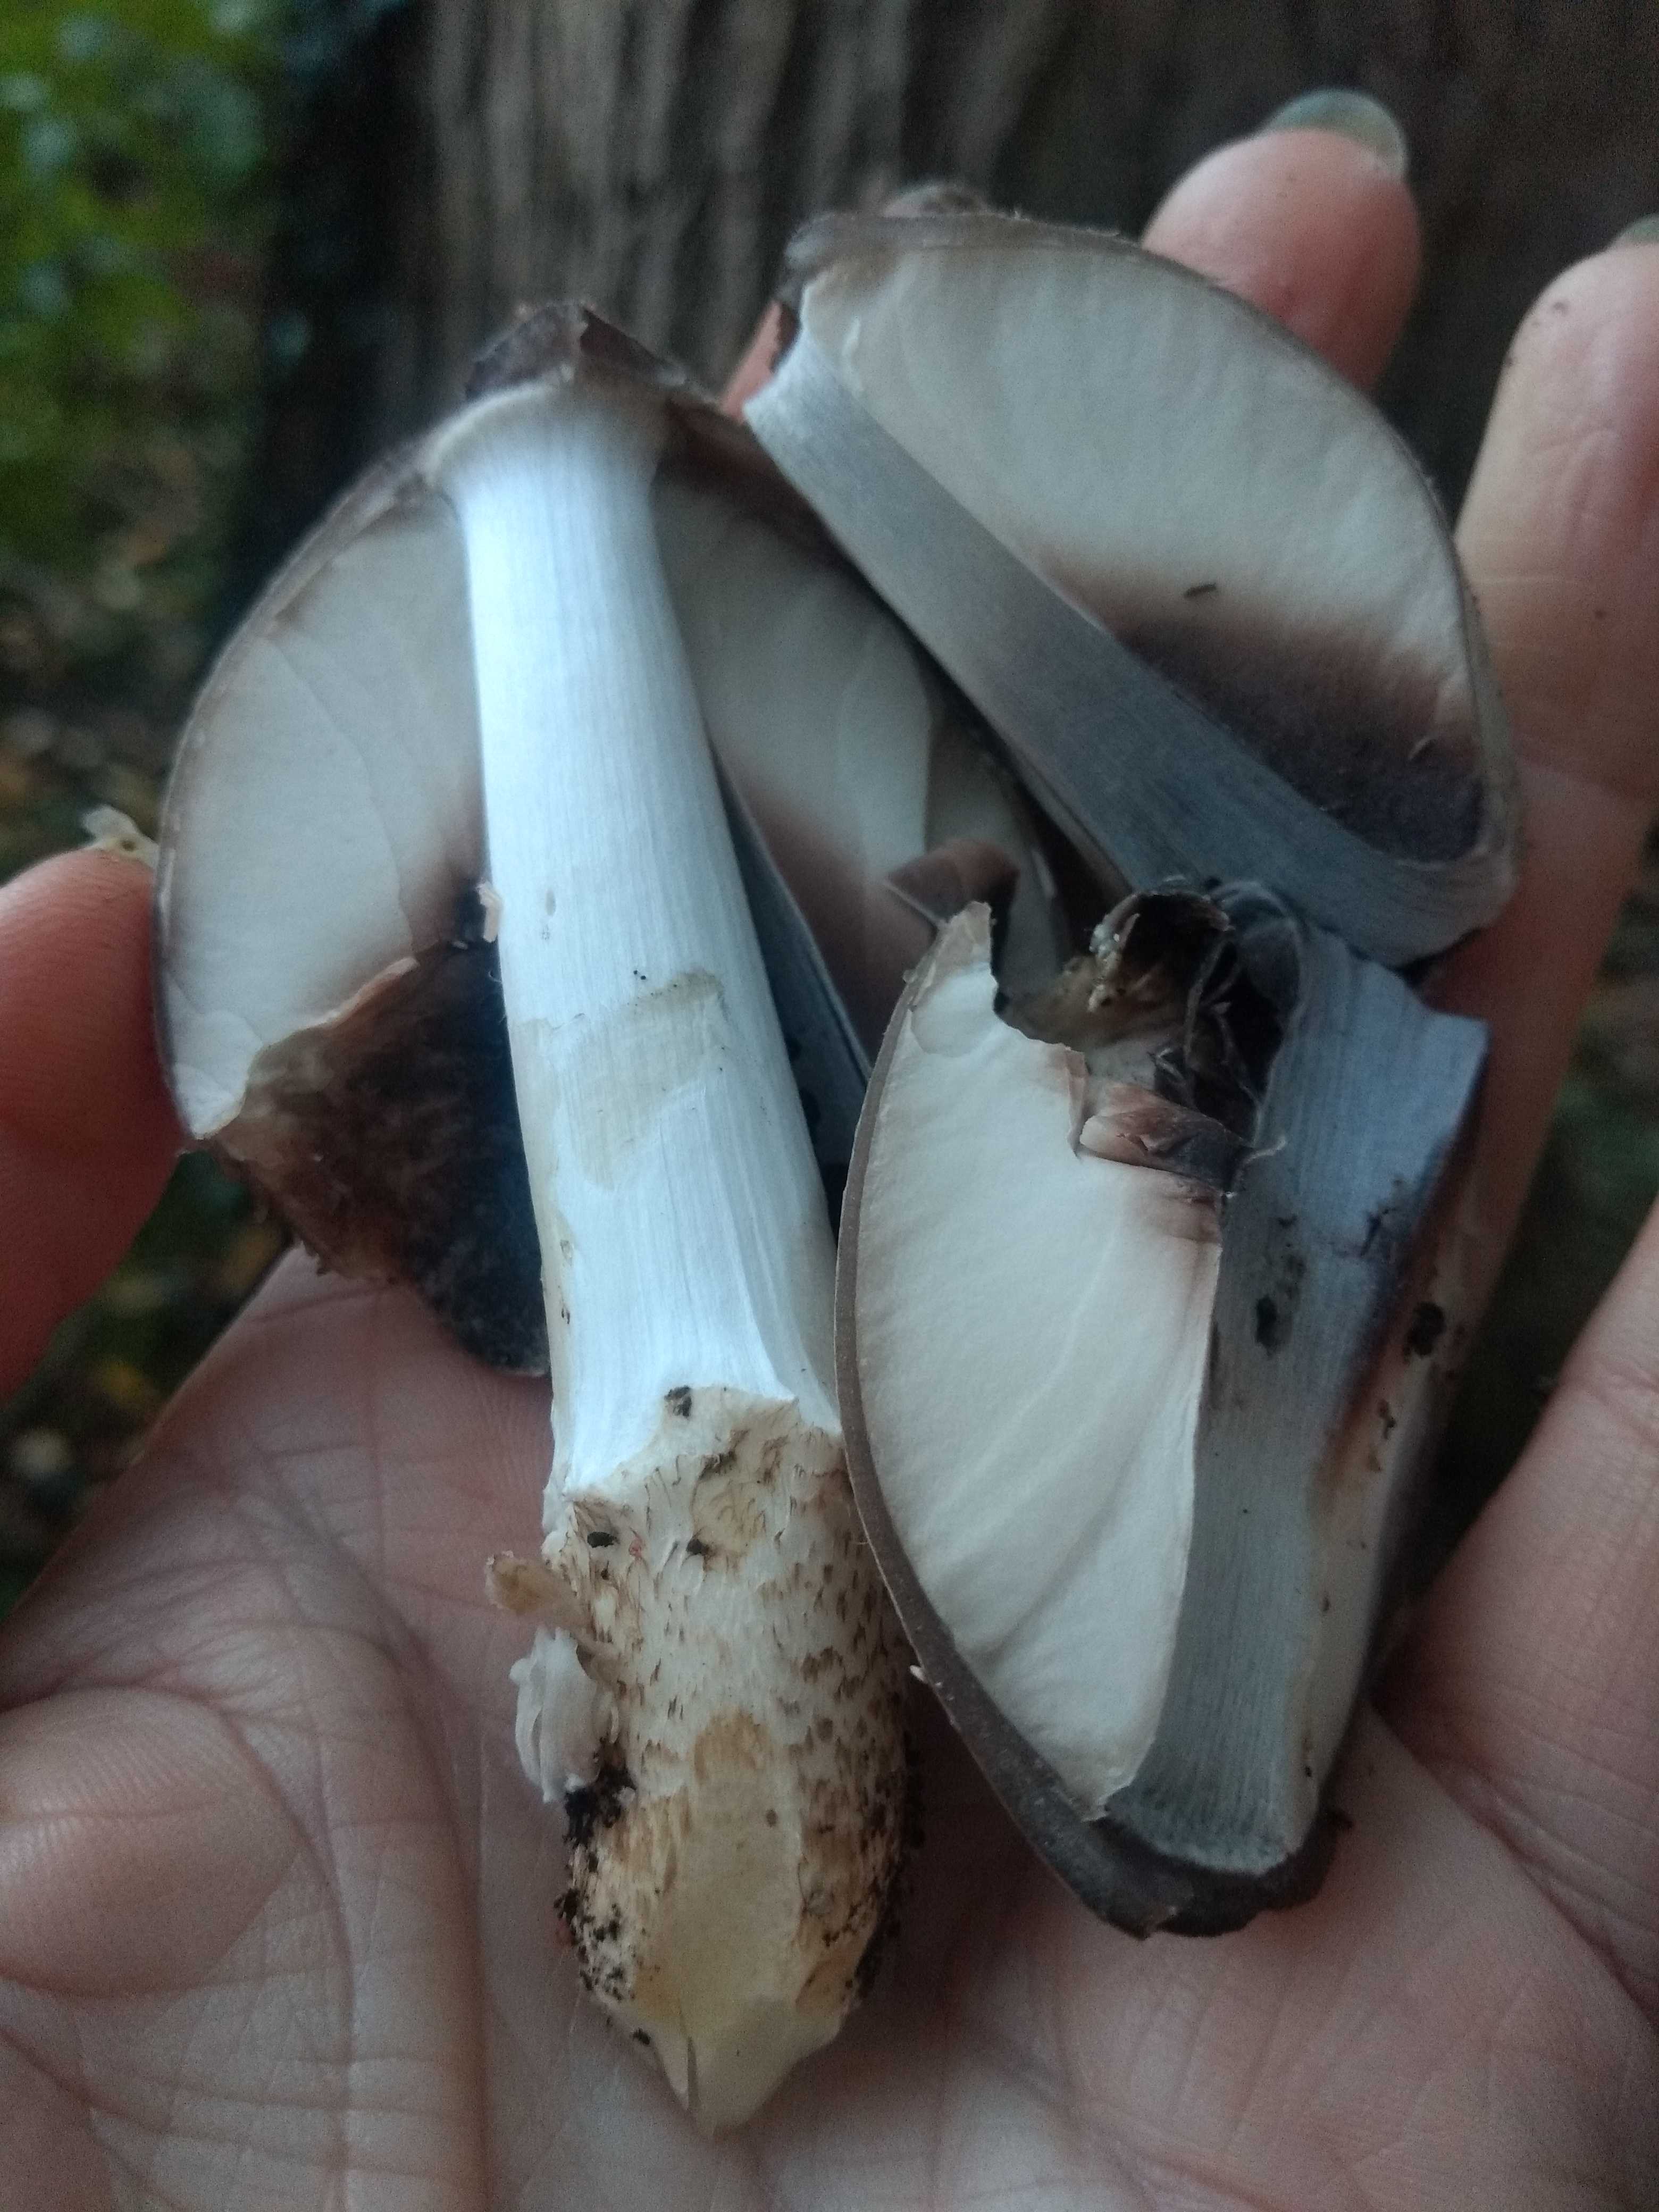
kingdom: Fungi
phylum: Basidiomycota
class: Agaricomycetes
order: Agaricales
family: Psathyrellaceae
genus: Coprinopsis
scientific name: Coprinopsis romagnesiana
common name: brunskællet blækhat
